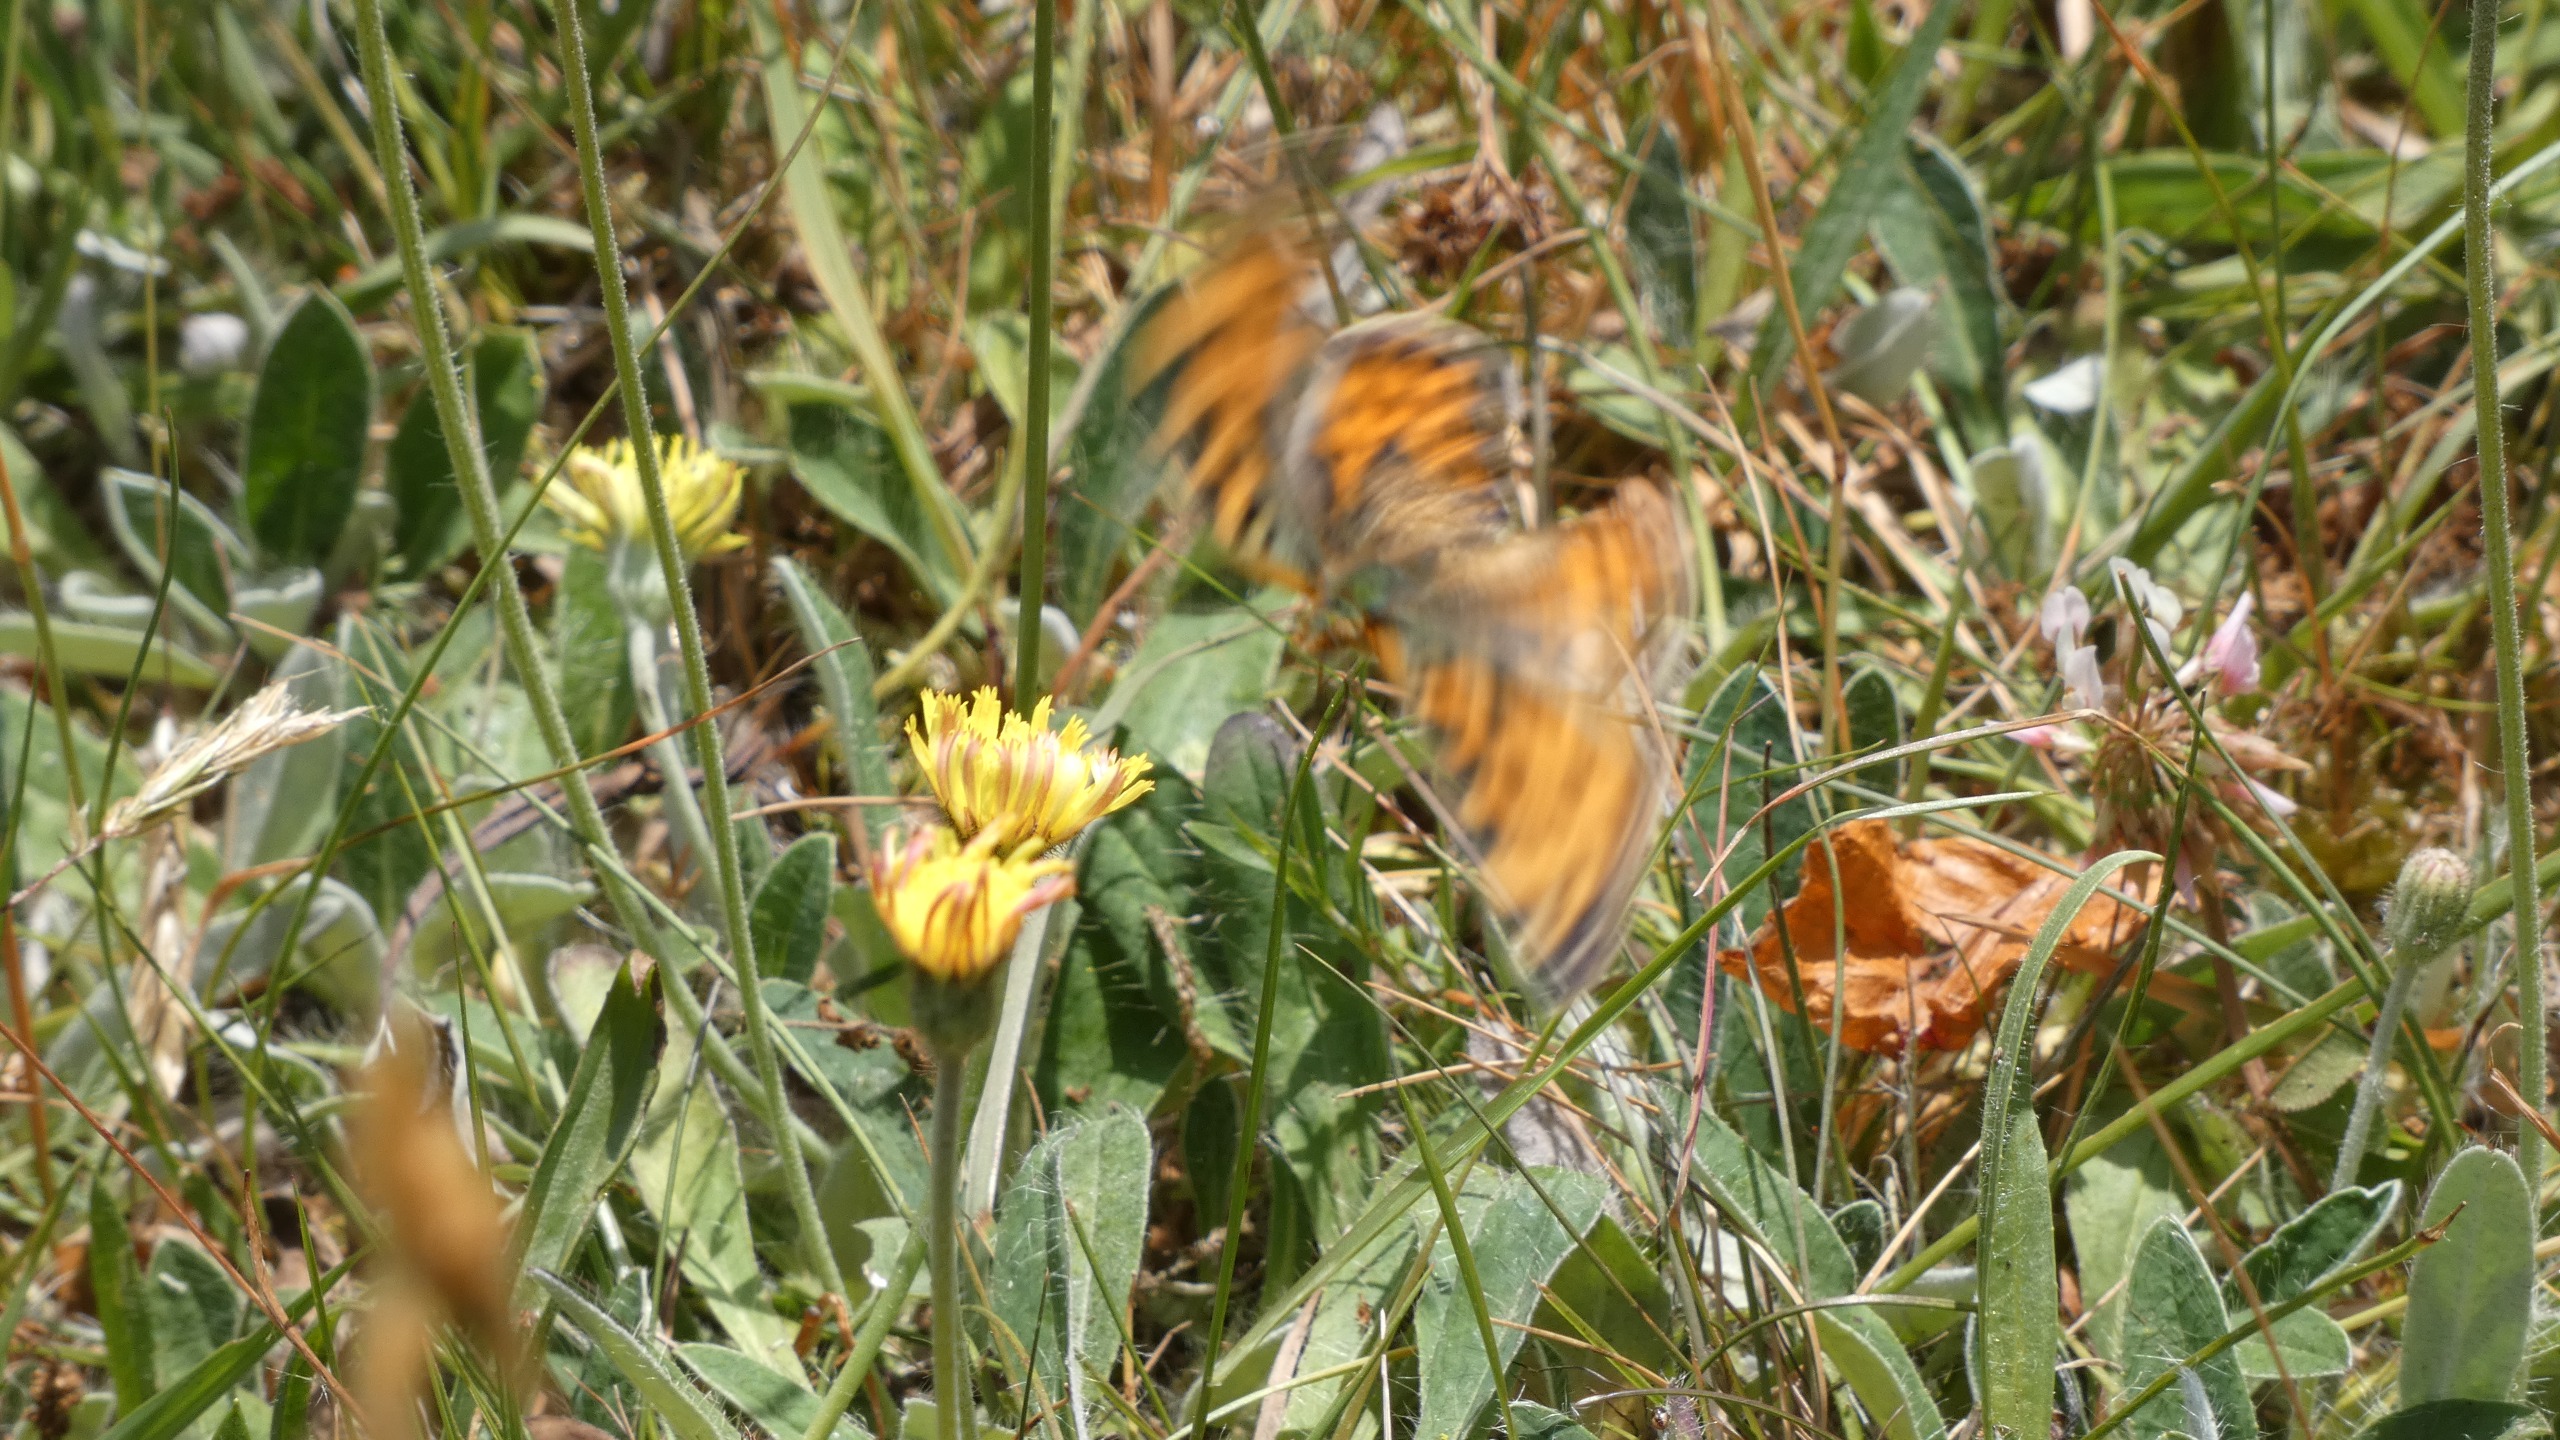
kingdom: Animalia
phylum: Arthropoda
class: Insecta
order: Lepidoptera
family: Nymphalidae
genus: Issoria
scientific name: Issoria lathonia
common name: Storplettet perlemorsommerfugl
